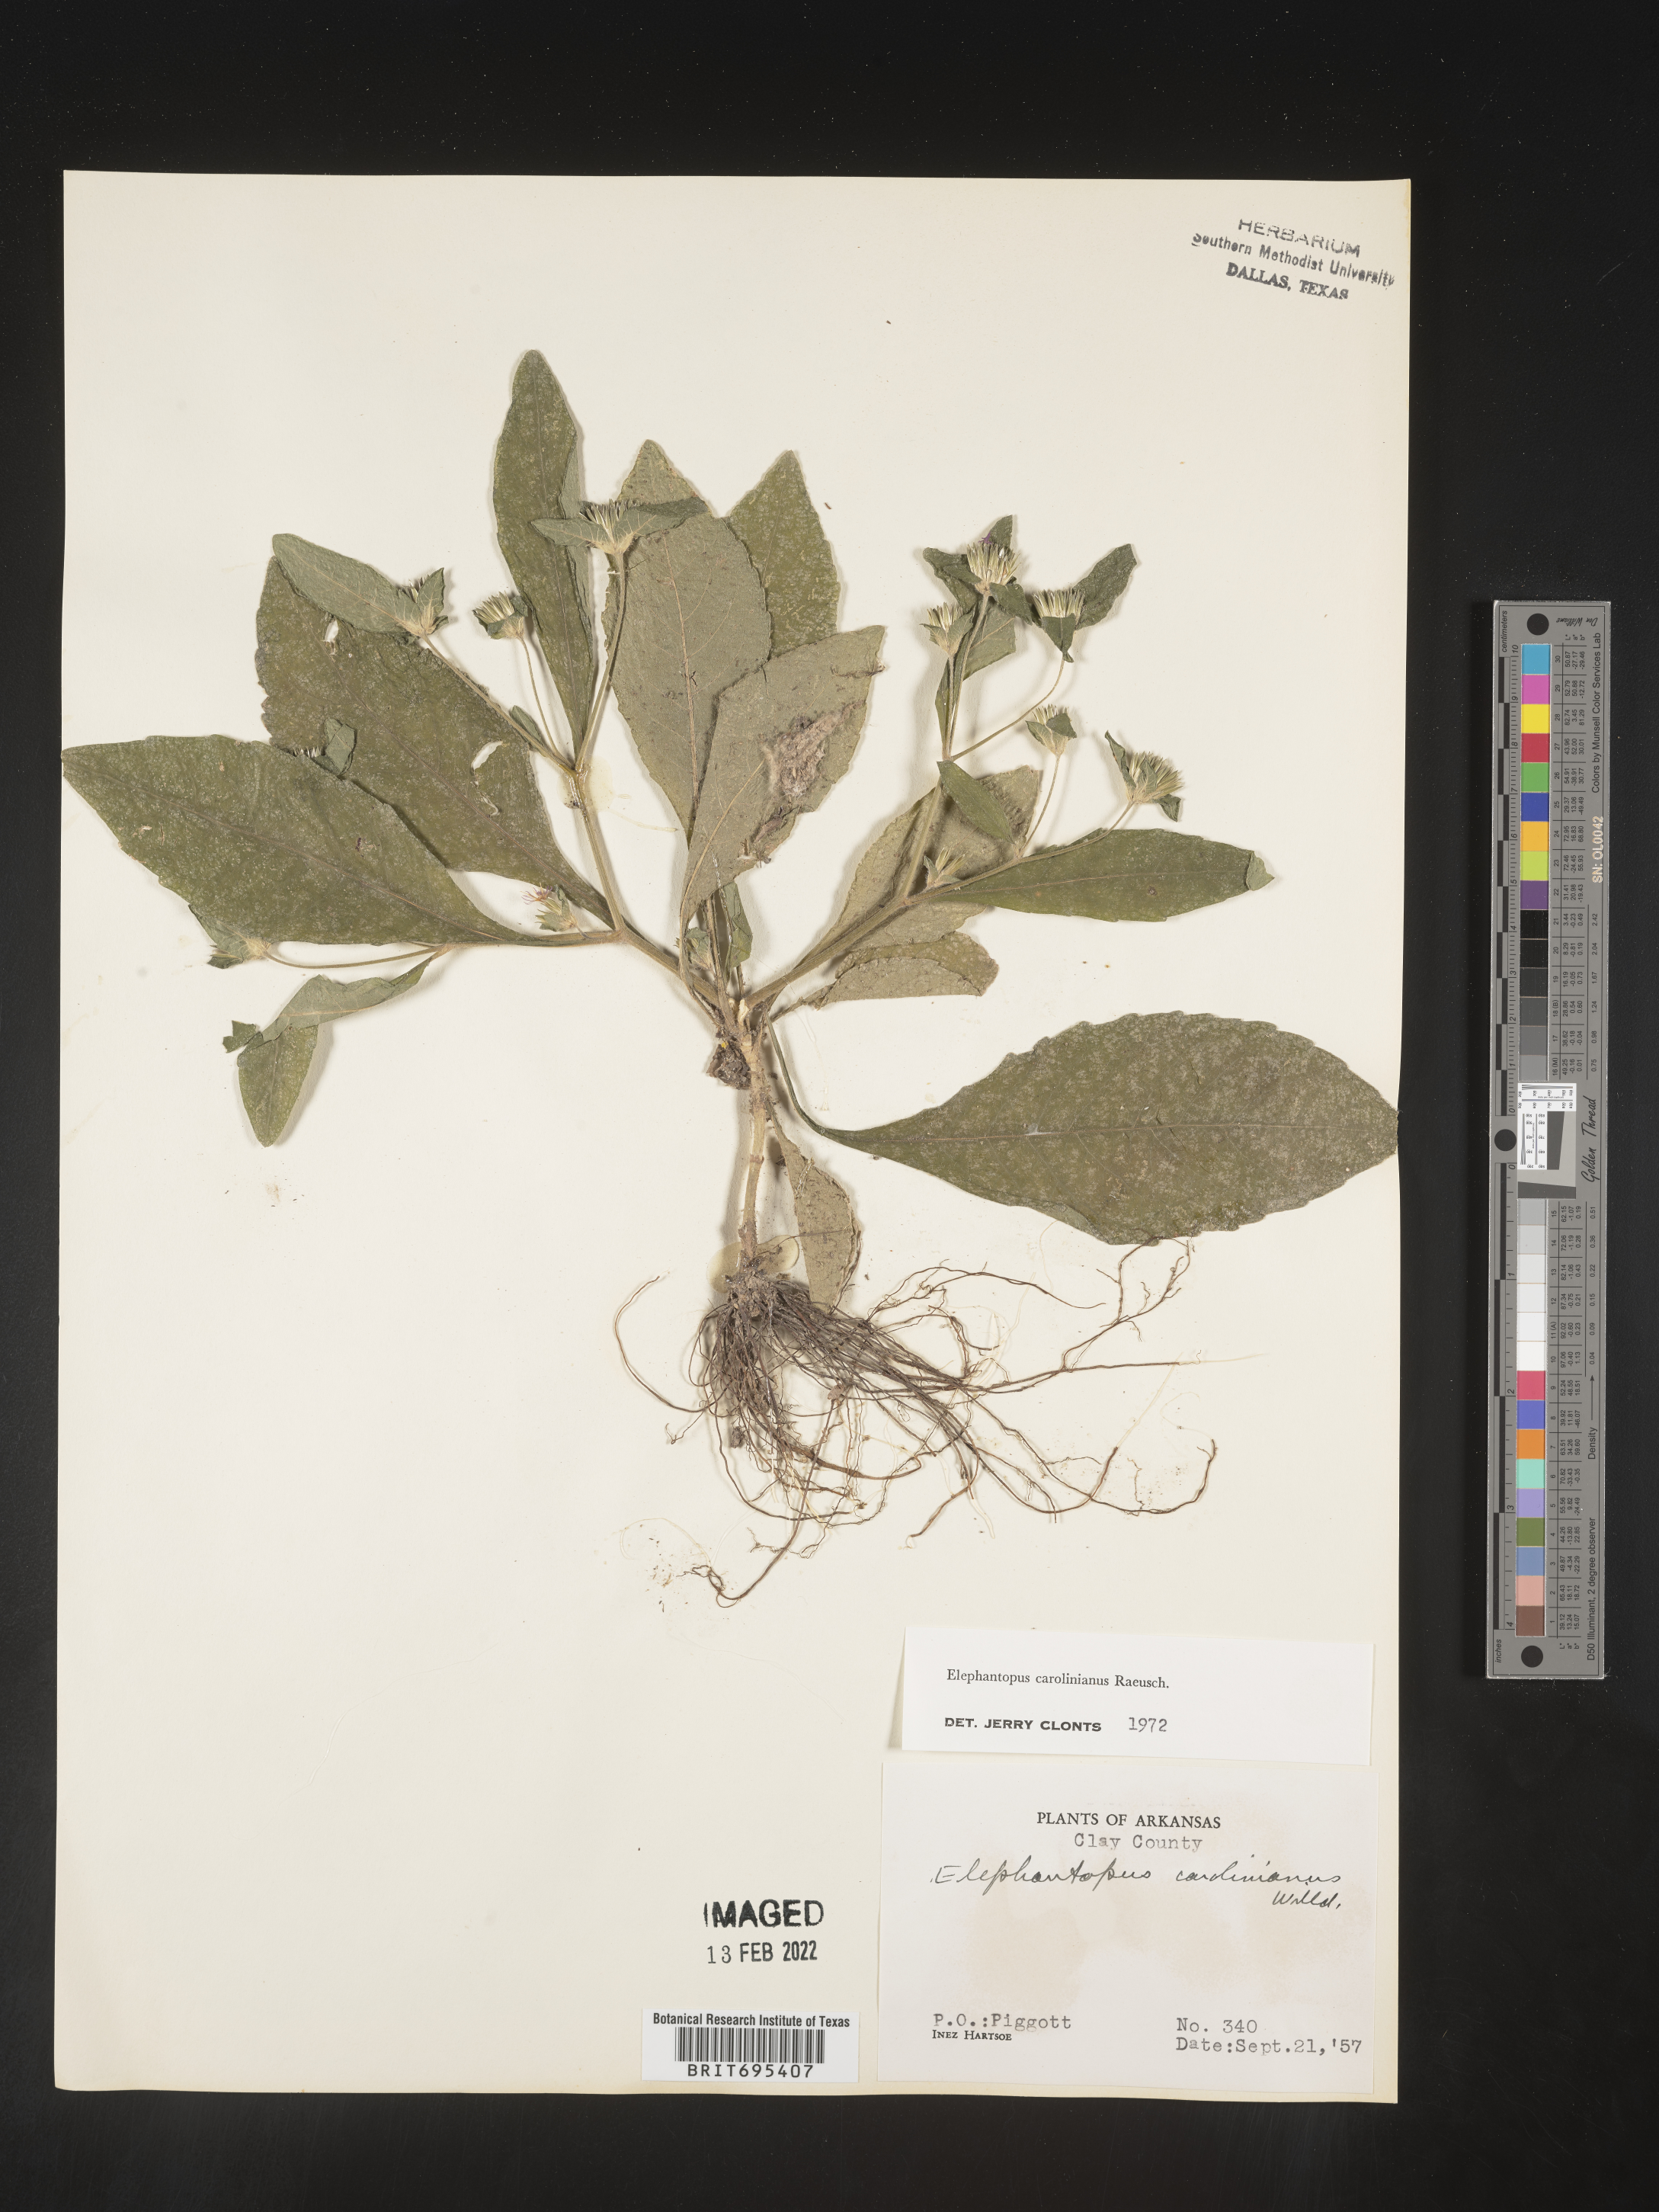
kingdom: Plantae
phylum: Tracheophyta
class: Magnoliopsida
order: Asterales
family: Asteraceae
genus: Elephantopus
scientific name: Elephantopus carolinianus
